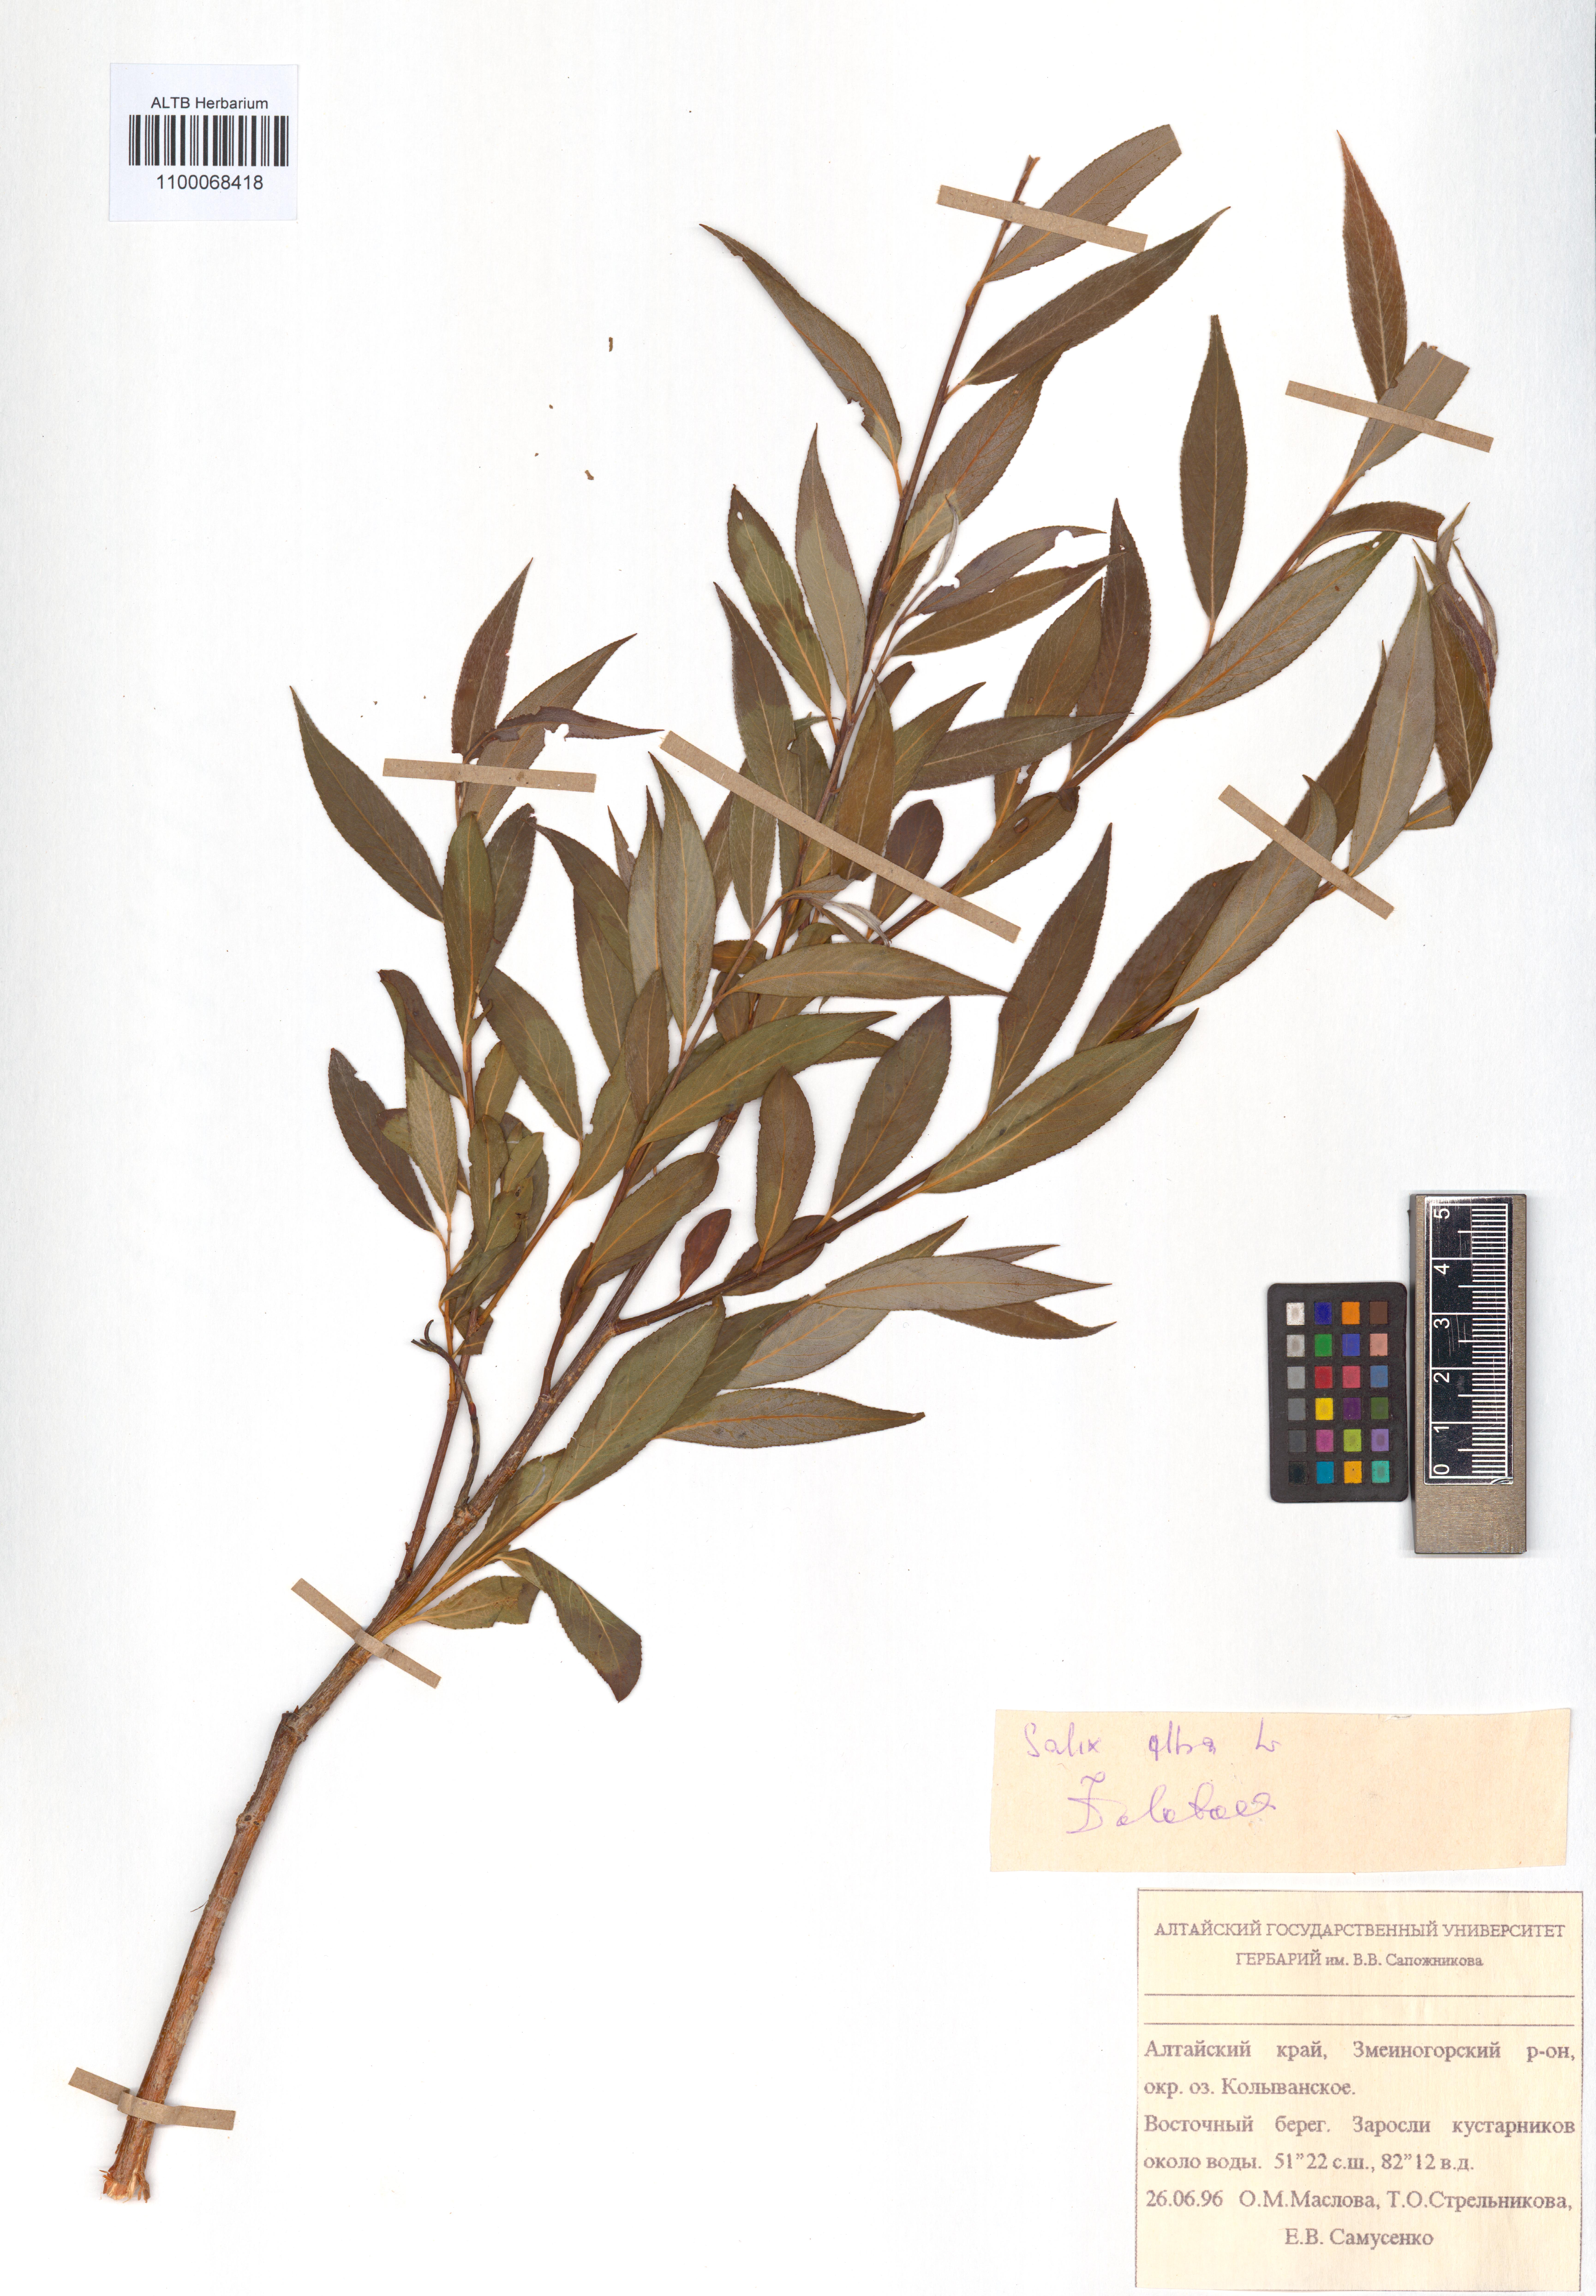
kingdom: Plantae
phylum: Tracheophyta
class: Magnoliopsida
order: Malpighiales
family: Salicaceae
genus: Salix
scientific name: Salix alba
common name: White willow
